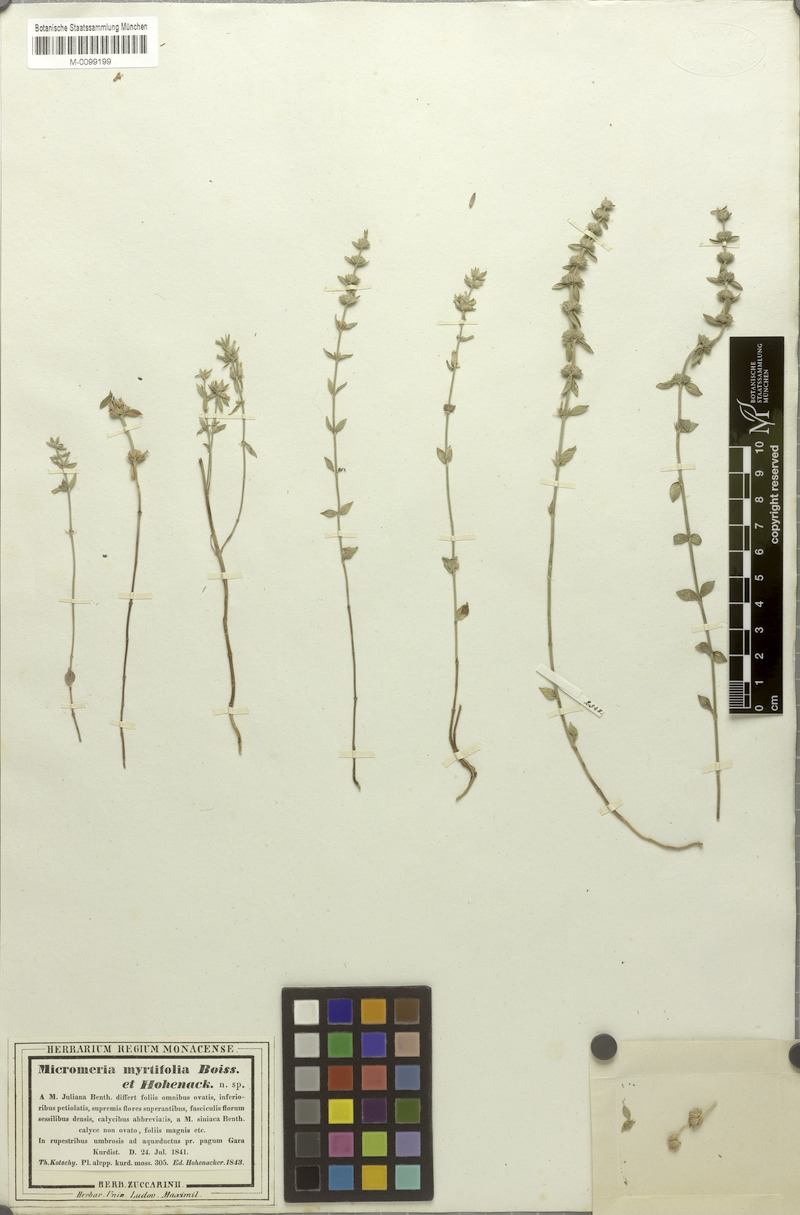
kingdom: Plantae
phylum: Tracheophyta
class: Magnoliopsida
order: Lamiales
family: Lamiaceae
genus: Micromeria
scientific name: Micromeria myrtifolia
